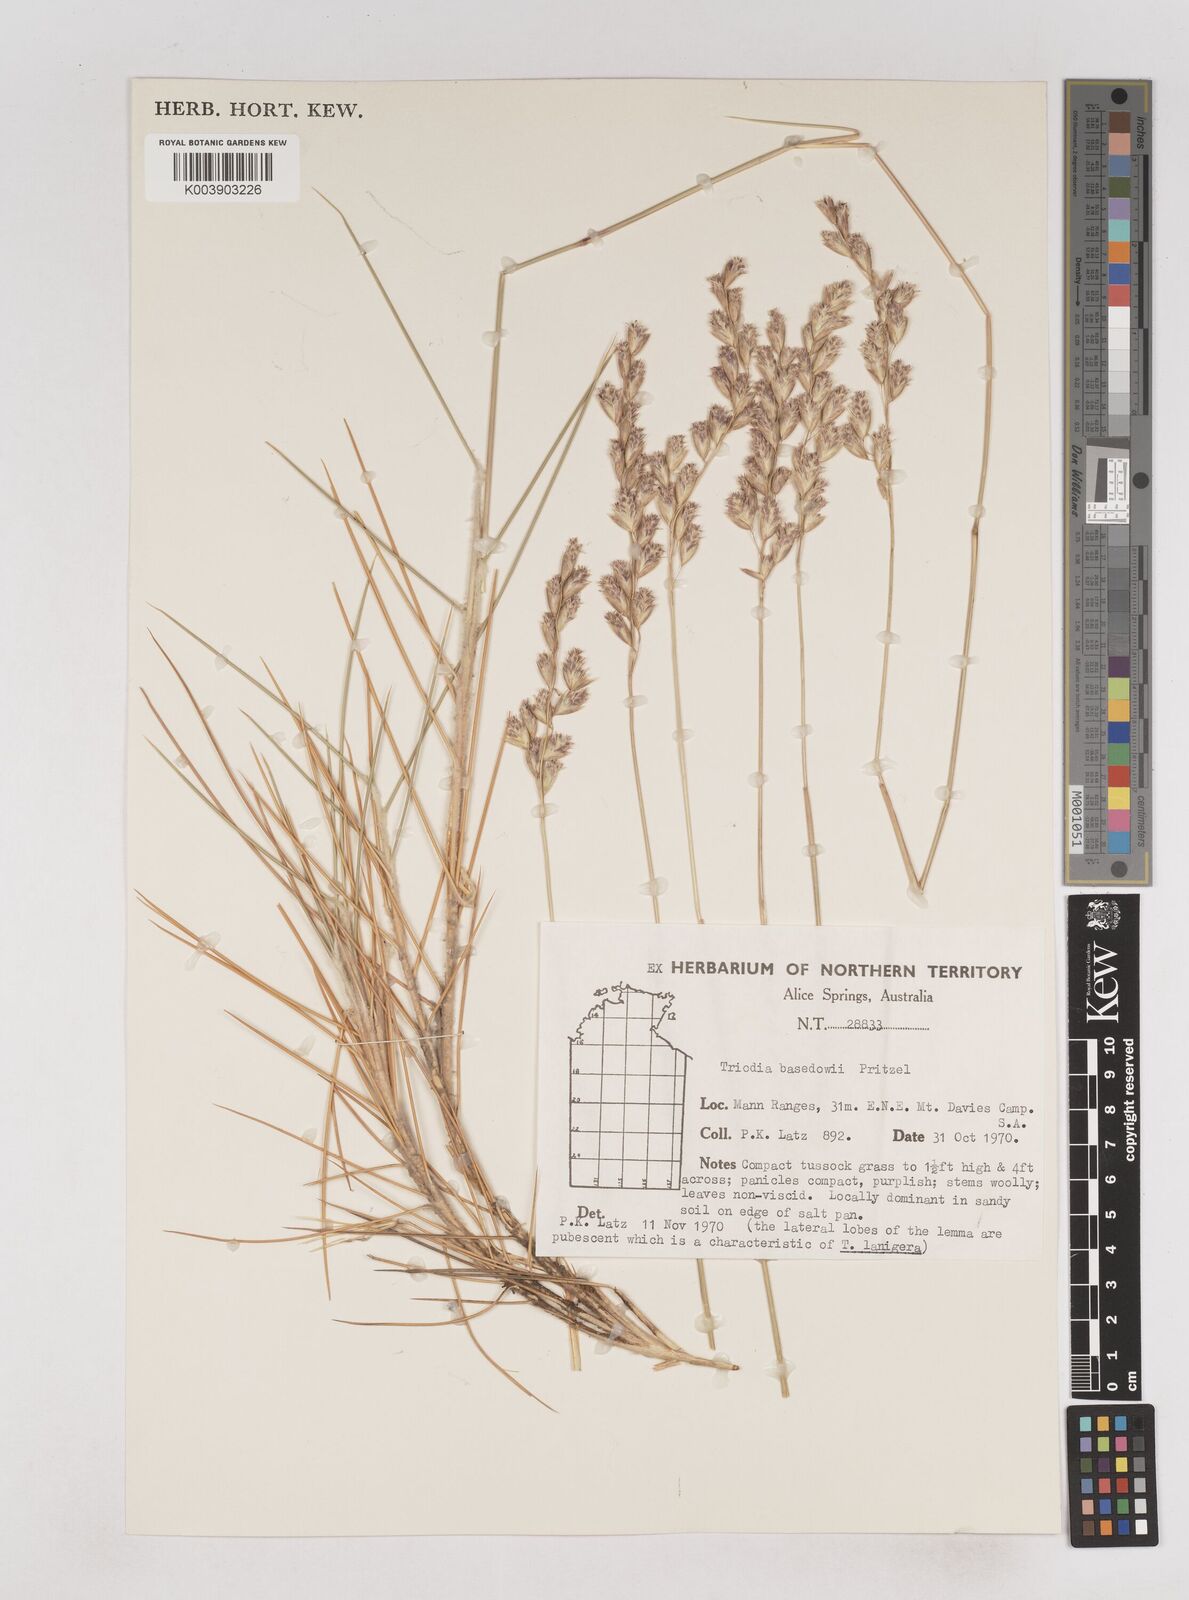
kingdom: Plantae
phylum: Tracheophyta
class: Liliopsida
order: Poales
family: Poaceae
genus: Triodia
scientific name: Triodia basedowii
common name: Hard spinifex
